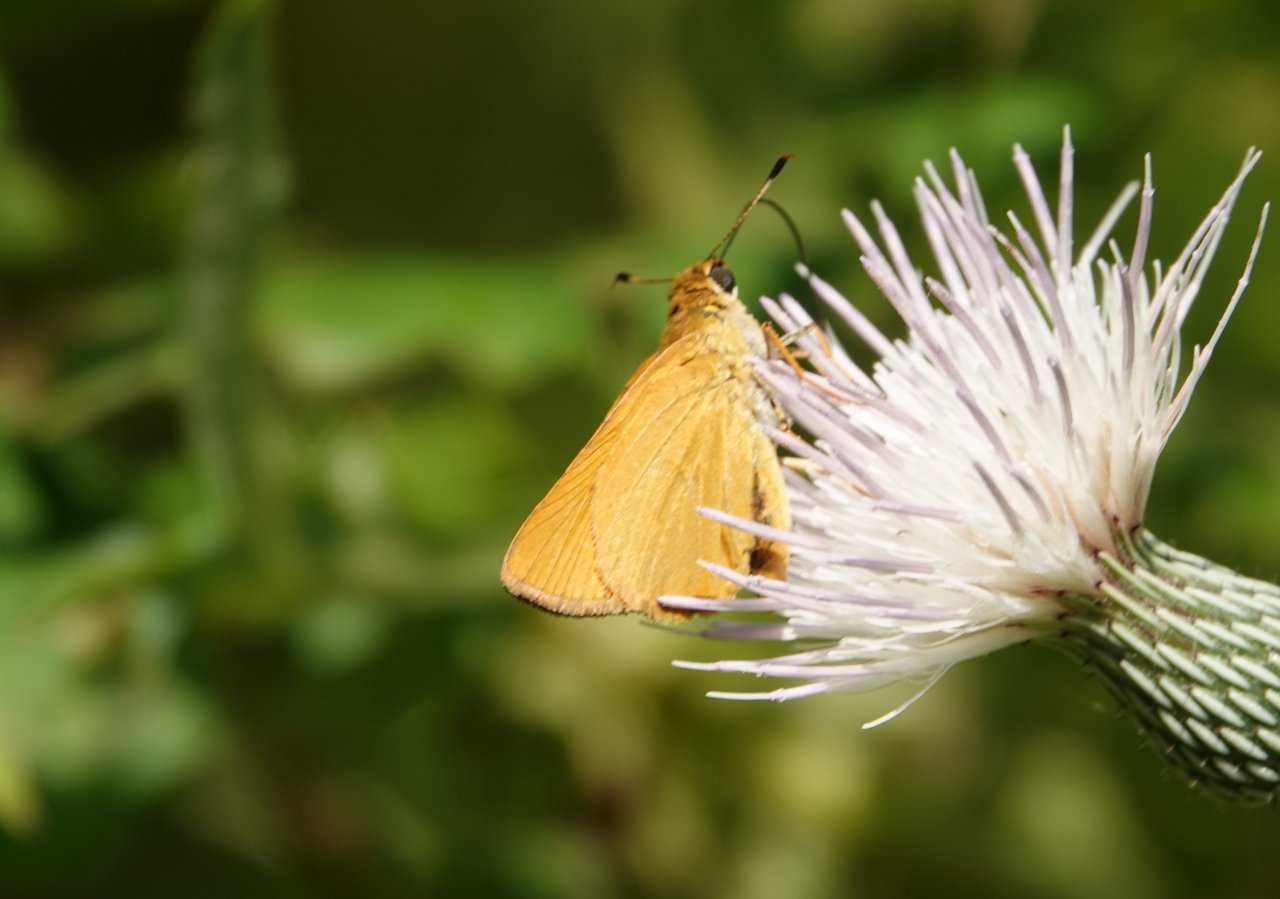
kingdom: Animalia
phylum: Arthropoda
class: Insecta
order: Lepidoptera
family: Hesperiidae
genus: Atrytone
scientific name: Atrytone delaware
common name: Delaware Skipper
